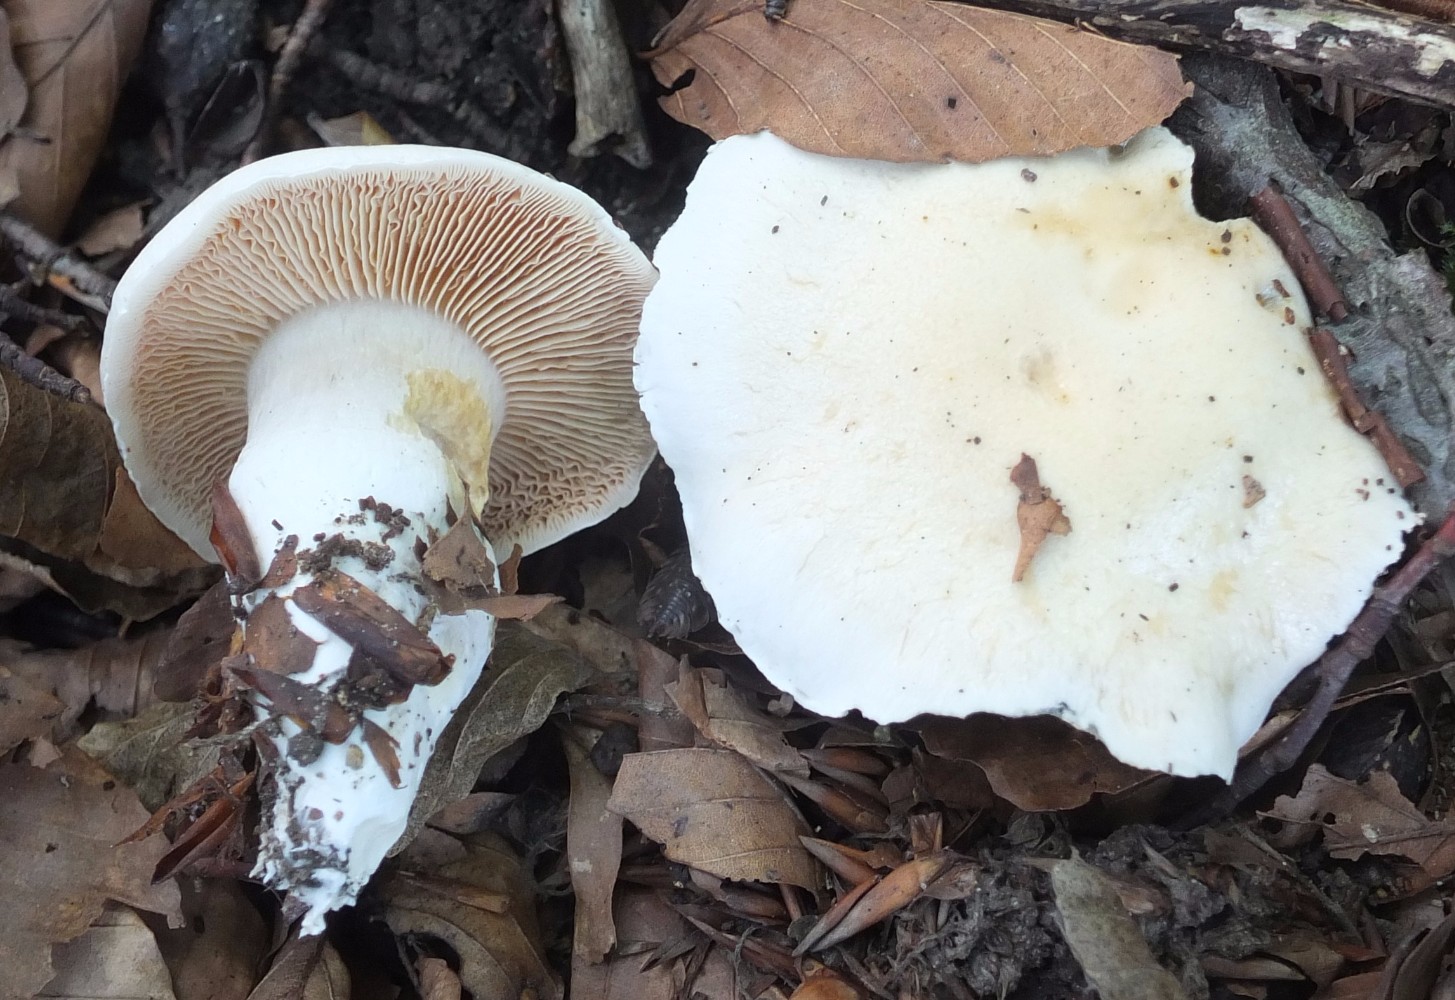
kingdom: Fungi
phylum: Basidiomycota
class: Agaricomycetes
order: Agaricales
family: Inocybaceae
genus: Inocybe
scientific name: Inocybe incarnata
